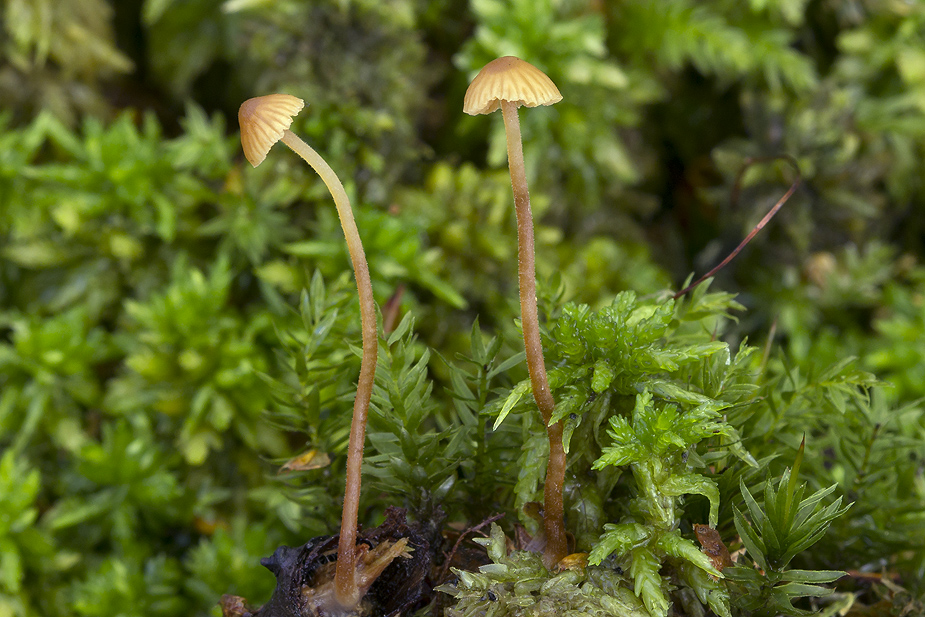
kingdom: Fungi
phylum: Basidiomycota
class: Agaricomycetes
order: Agaricales
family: Hymenogastraceae
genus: Galerina
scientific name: Galerina atkinsoniana
